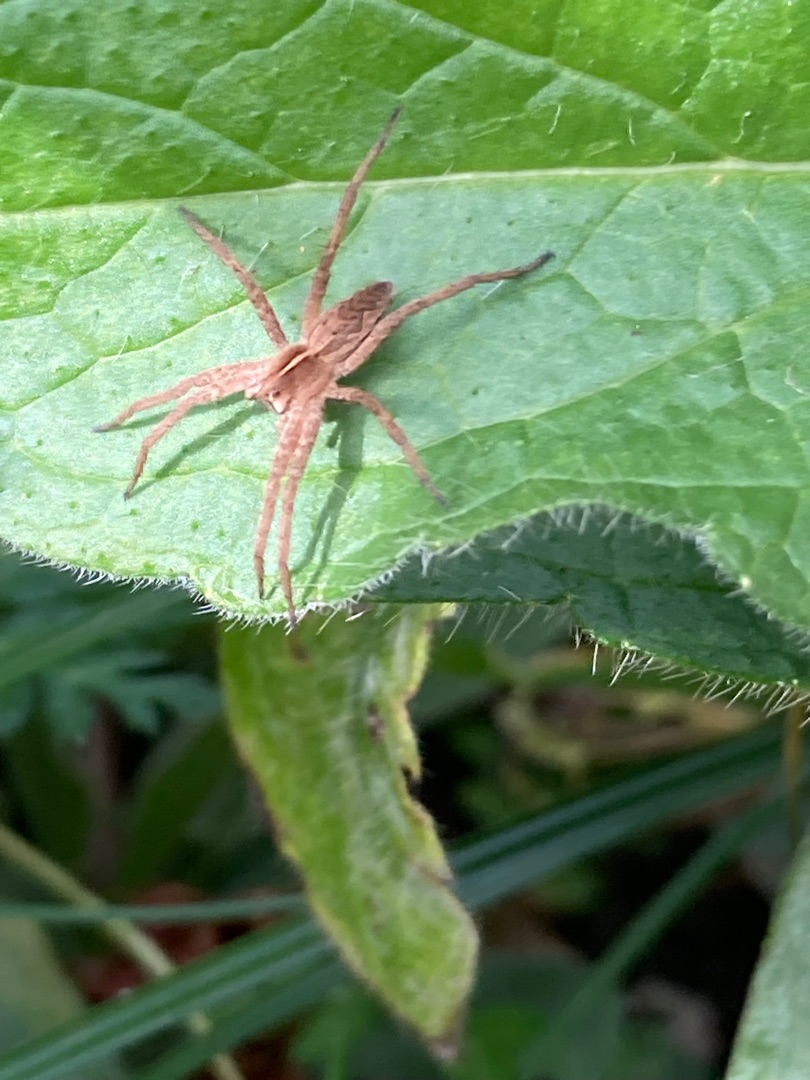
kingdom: Animalia
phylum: Arthropoda
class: Arachnida
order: Araneae
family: Pisauridae
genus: Pisaura
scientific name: Pisaura mirabilis
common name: Almindelig rovedderkop
